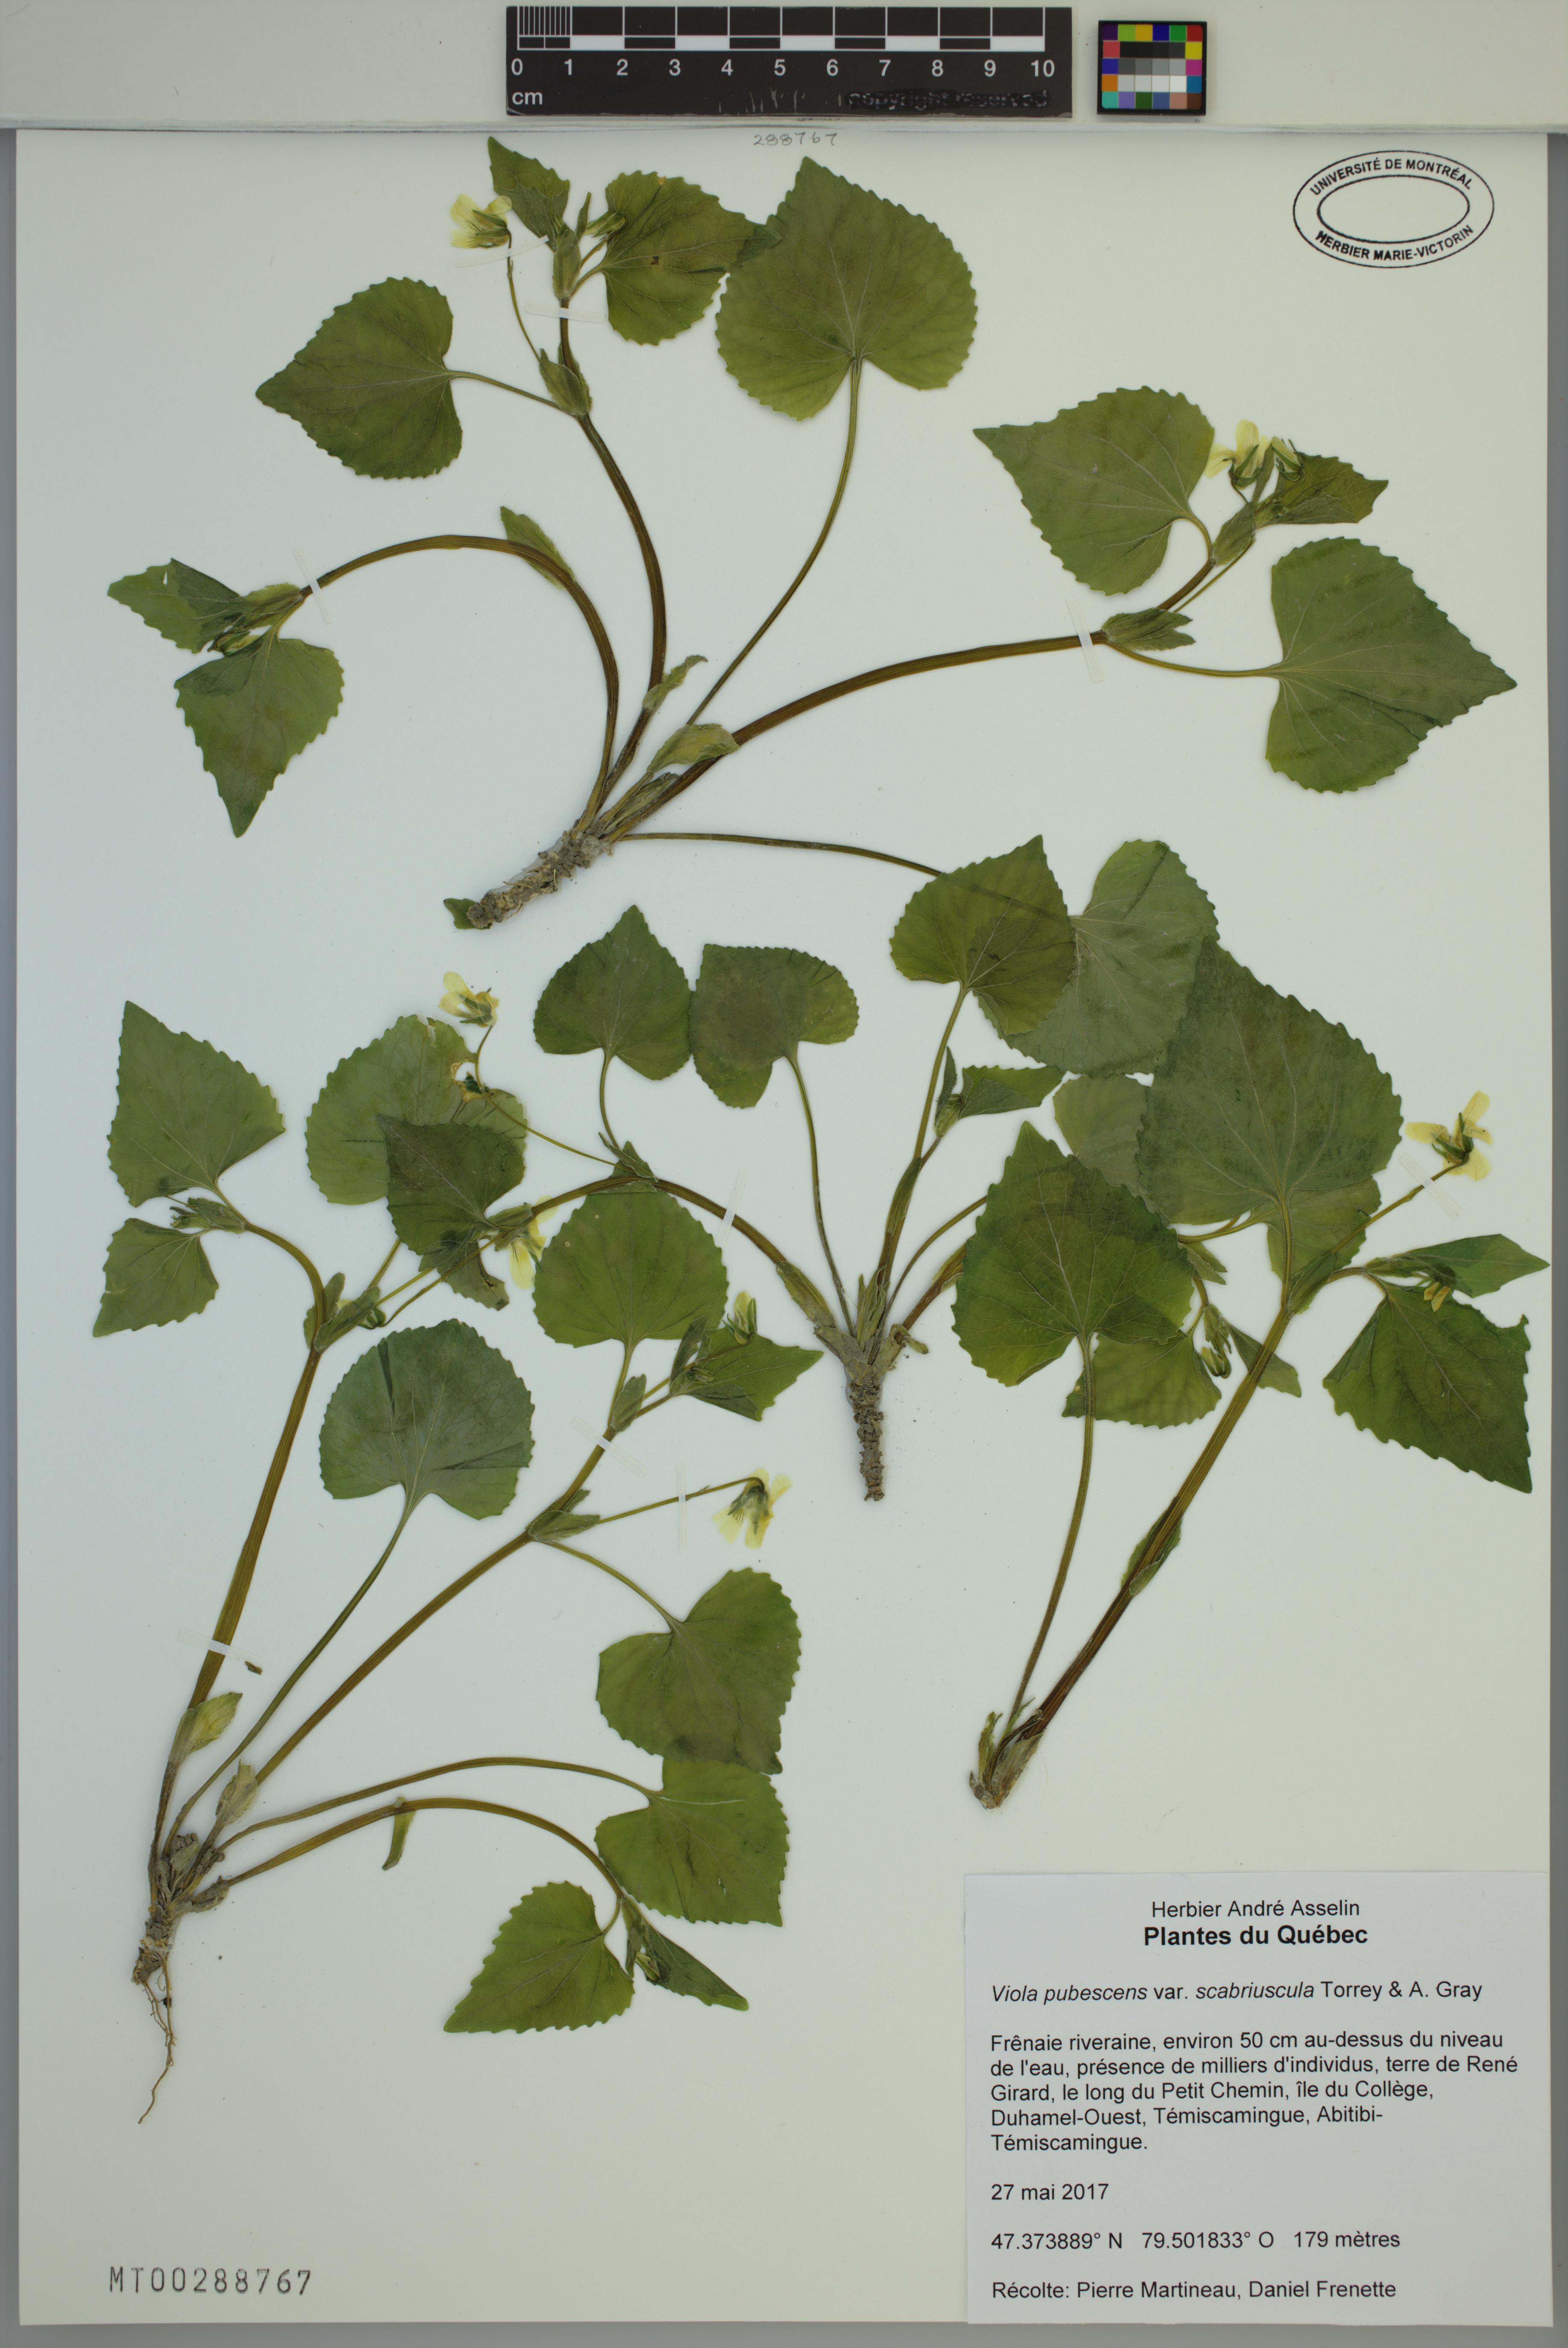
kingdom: Plantae
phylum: Tracheophyta
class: Magnoliopsida
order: Malpighiales
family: Violaceae
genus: Viola
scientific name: Viola eriocarpa
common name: Smooth yellow violet
